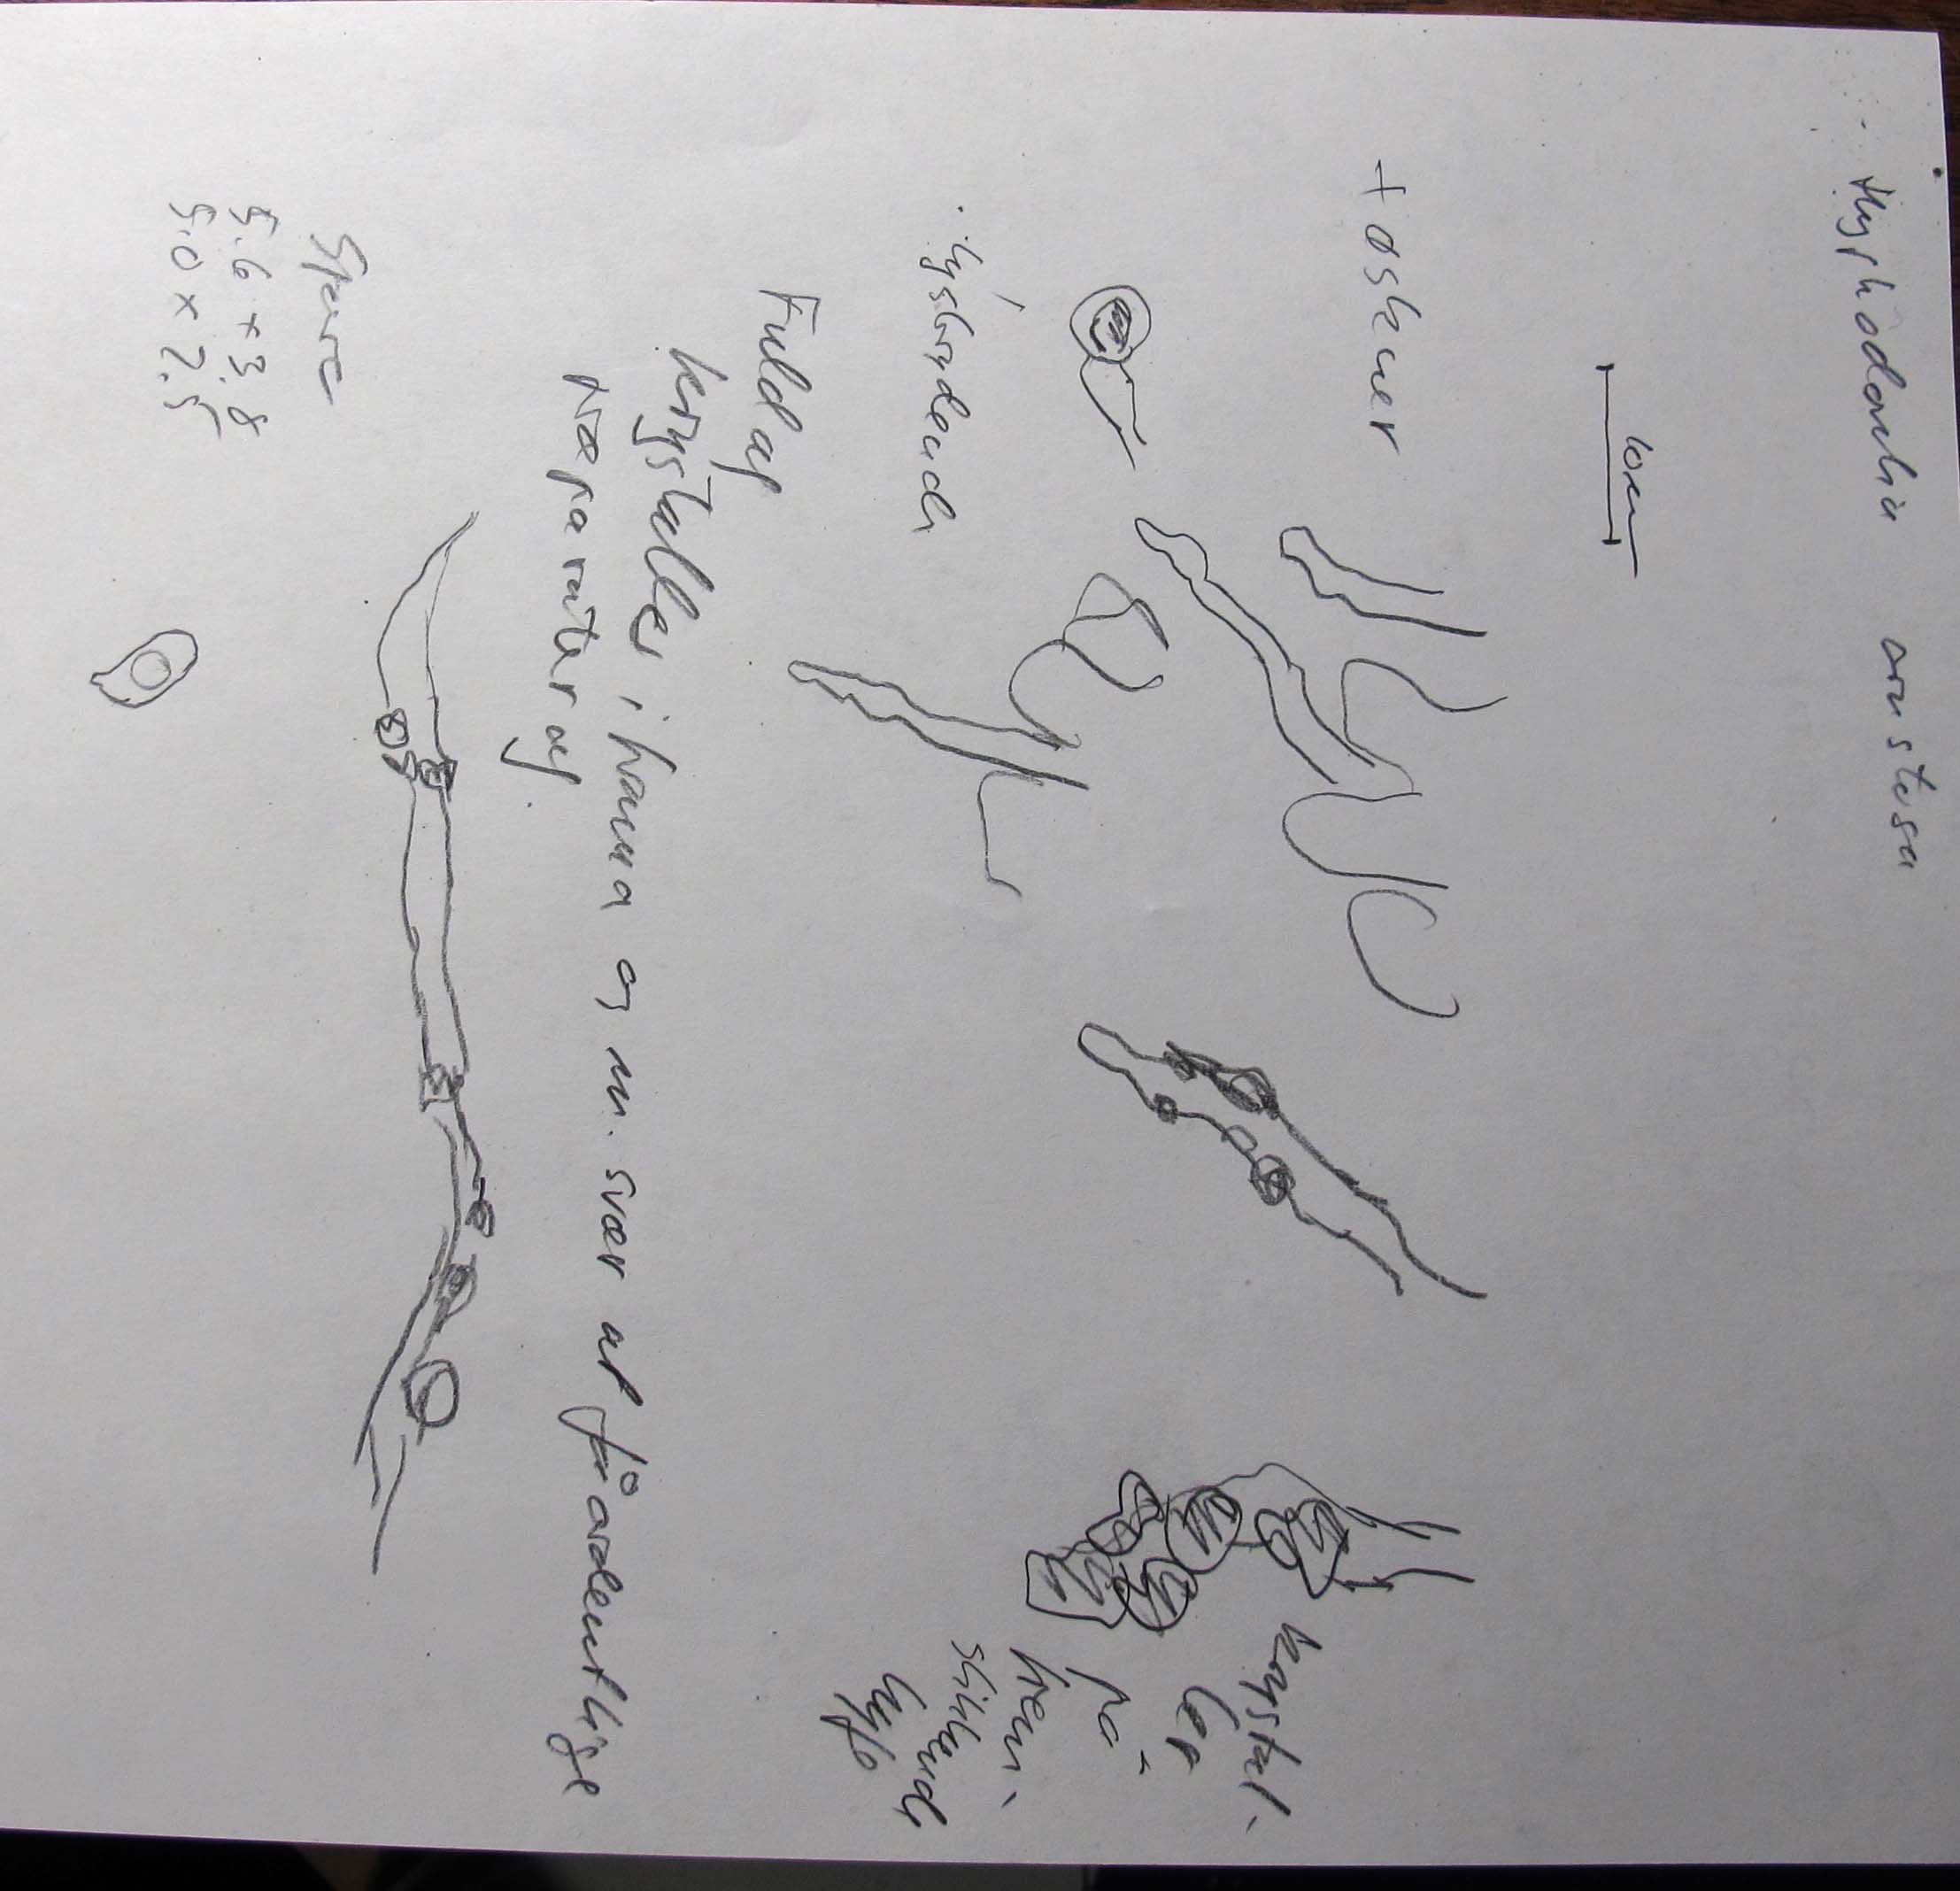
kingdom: Fungi
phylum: Basidiomycota
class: Agaricomycetes
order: Corticiales
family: Corticiaceae
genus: Lyomyces
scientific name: Lyomyces crustosus
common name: vortet hyldehinde
